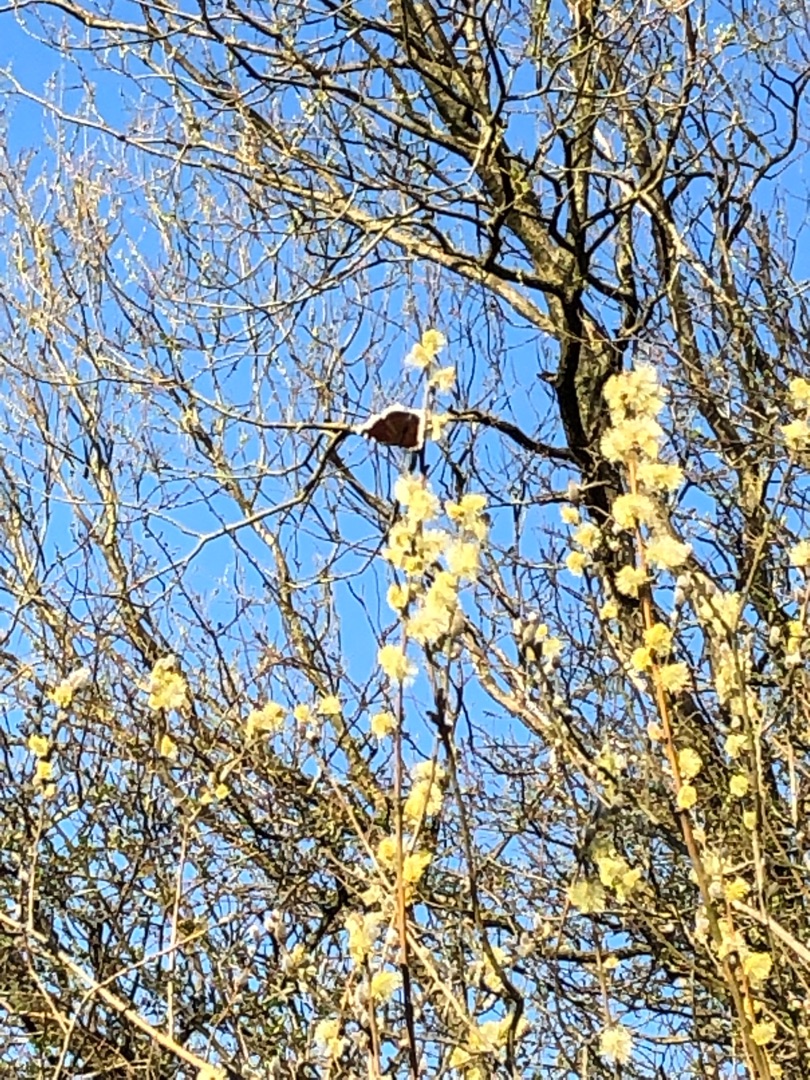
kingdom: Animalia
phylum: Arthropoda
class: Insecta
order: Lepidoptera
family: Nymphalidae
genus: Nymphalis
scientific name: Nymphalis antiopa
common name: Sørgekåbe
